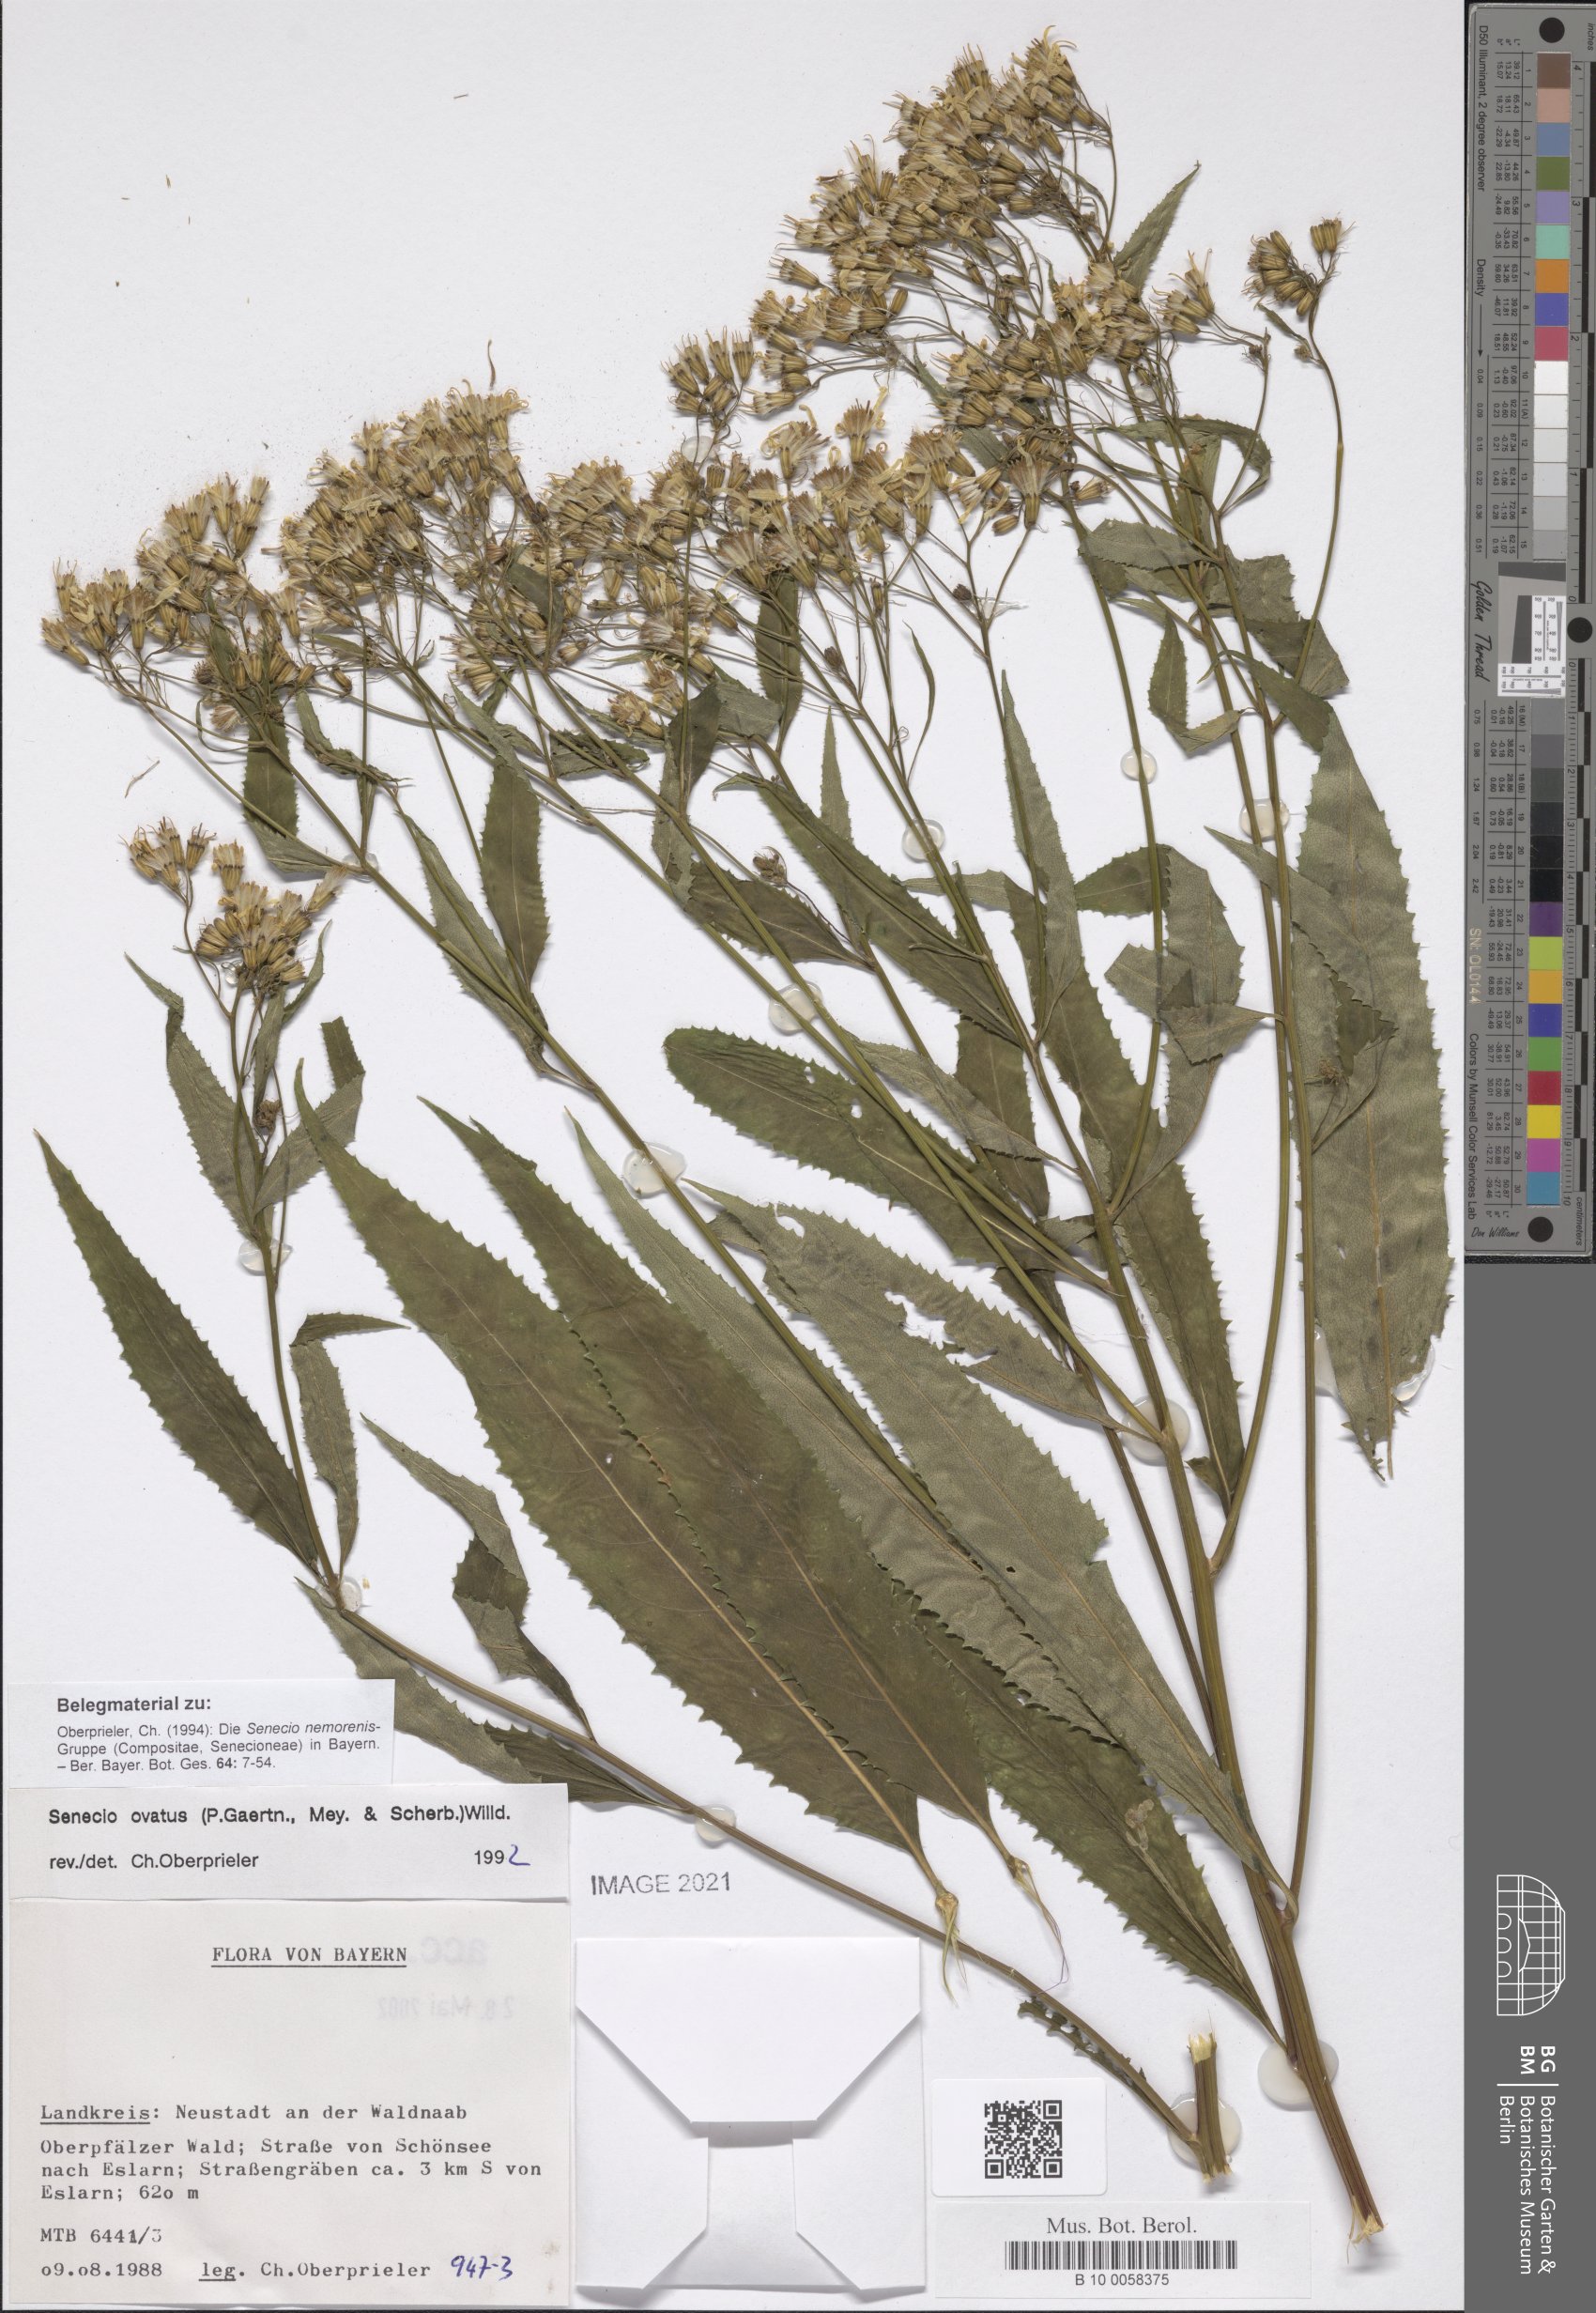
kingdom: Plantae
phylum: Tracheophyta
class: Magnoliopsida
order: Asterales
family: Asteraceae
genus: Senecio
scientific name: Senecio ovatus
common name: Wood ragwort
